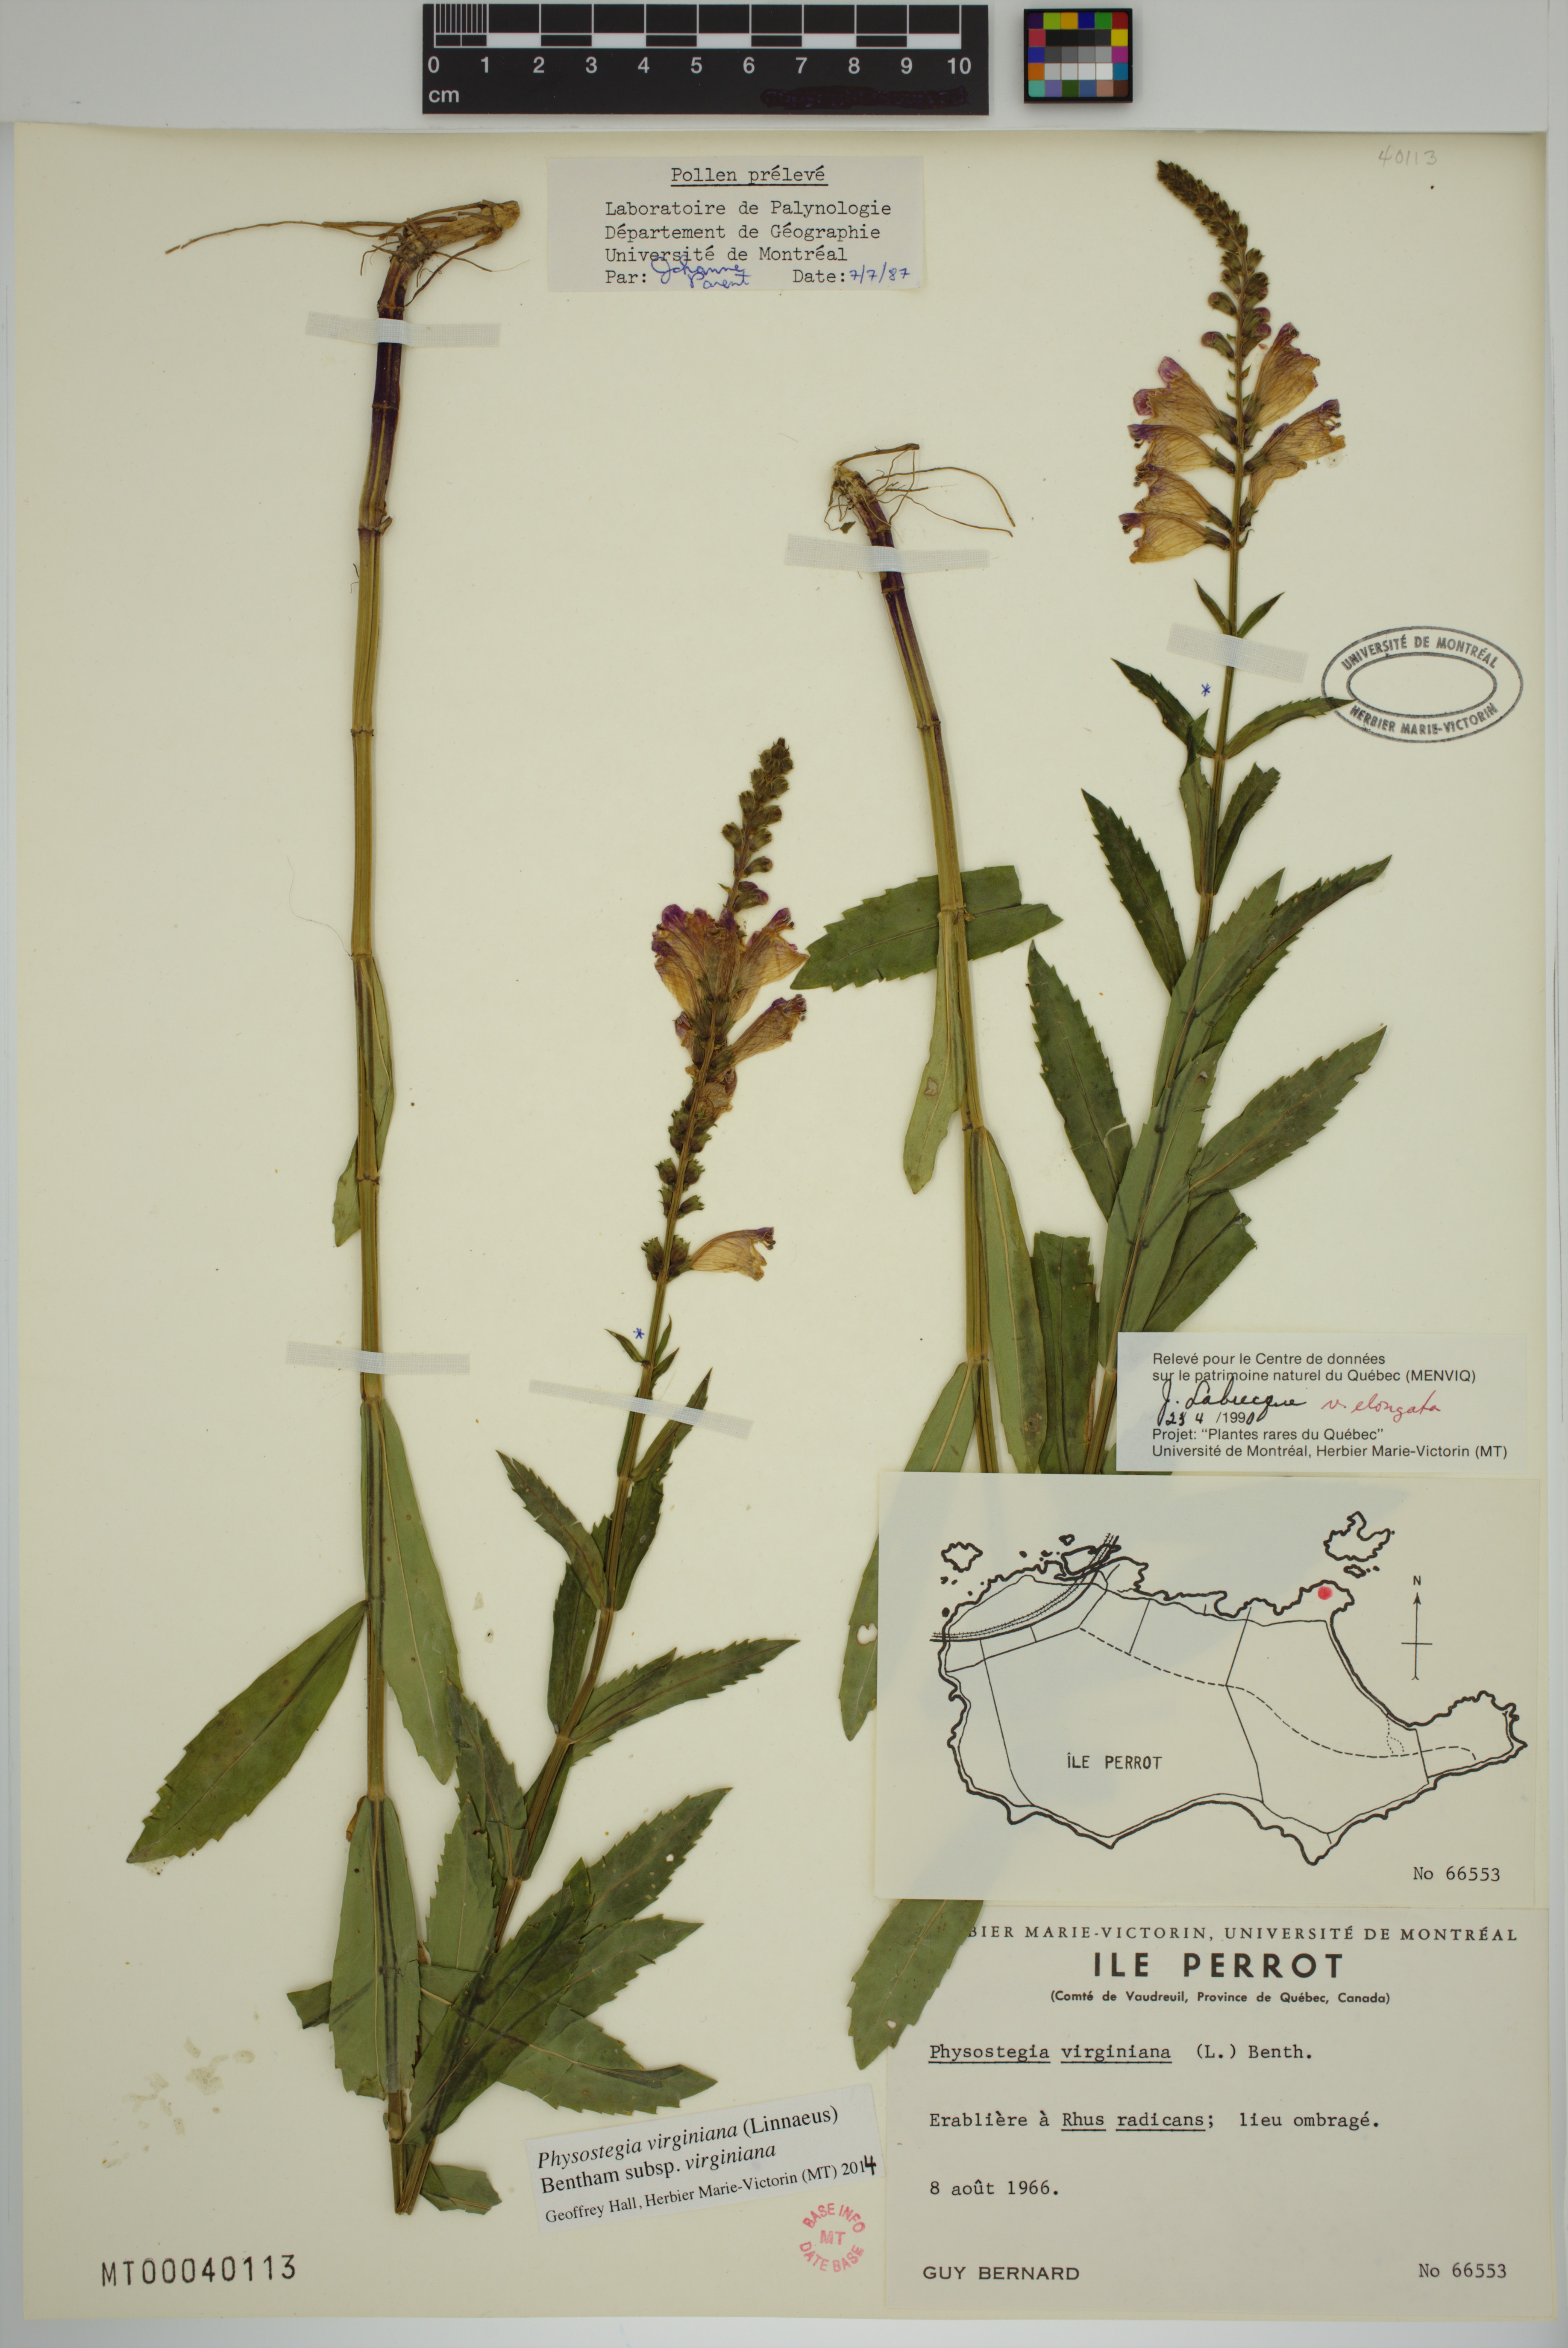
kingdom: Plantae
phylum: Tracheophyta
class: Magnoliopsida
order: Lamiales
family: Lamiaceae
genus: Physostegia
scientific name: Physostegia virginiana
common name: Obedient-plant
